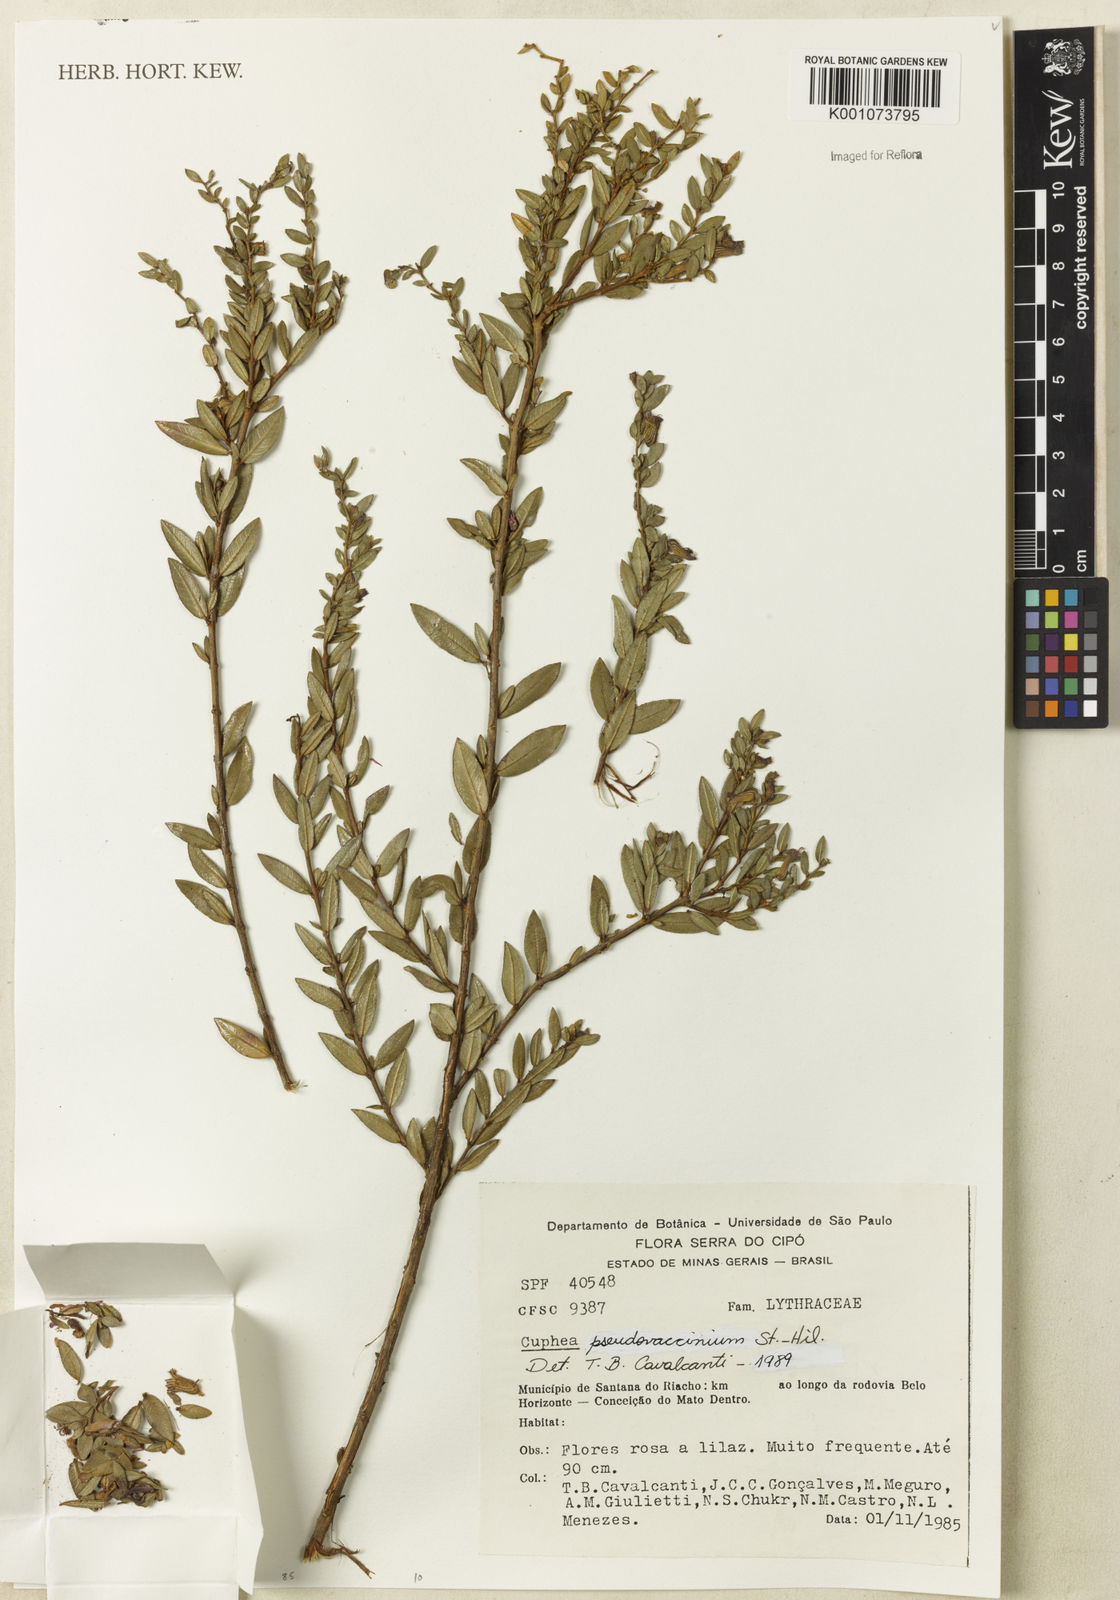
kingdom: Plantae
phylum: Tracheophyta
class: Magnoliopsida
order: Myrtales
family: Lythraceae
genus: Cuphea
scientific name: Cuphea pseudovaccinium
